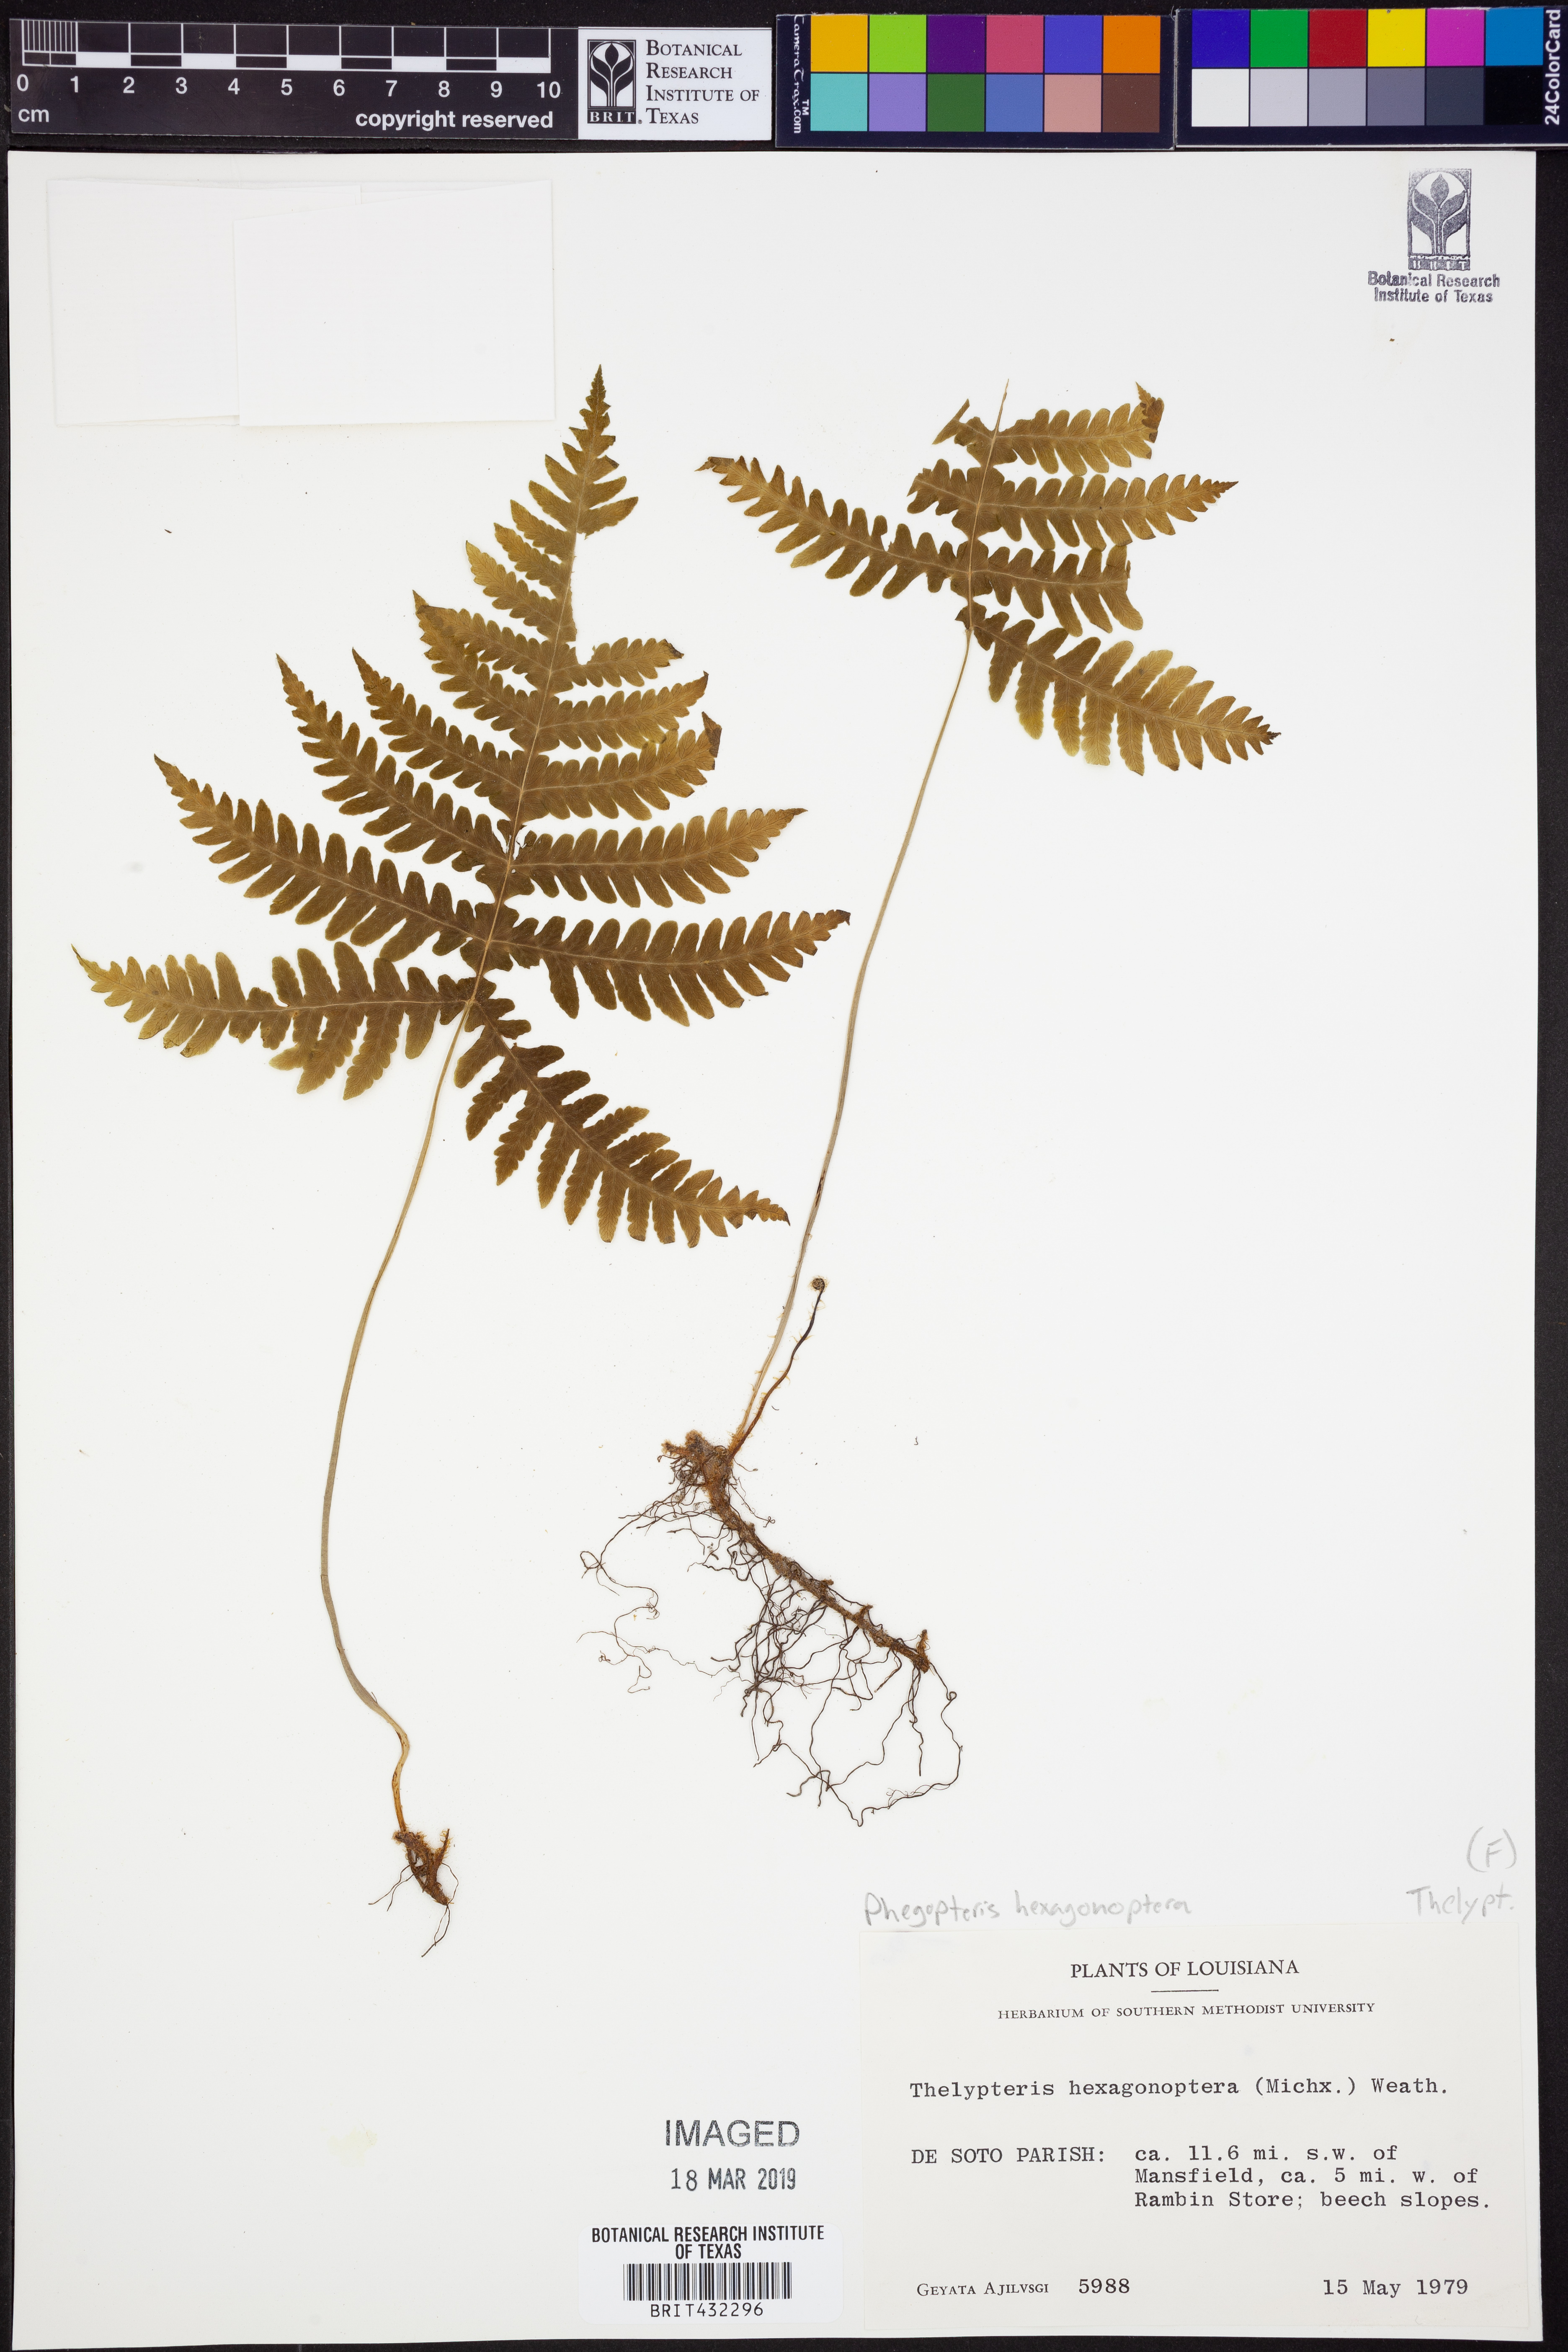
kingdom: Plantae
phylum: Tracheophyta
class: Polypodiopsida
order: Polypodiales
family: Thelypteridaceae
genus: Phegopteris
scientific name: Phegopteris hexagonoptera
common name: Broad beech fern
